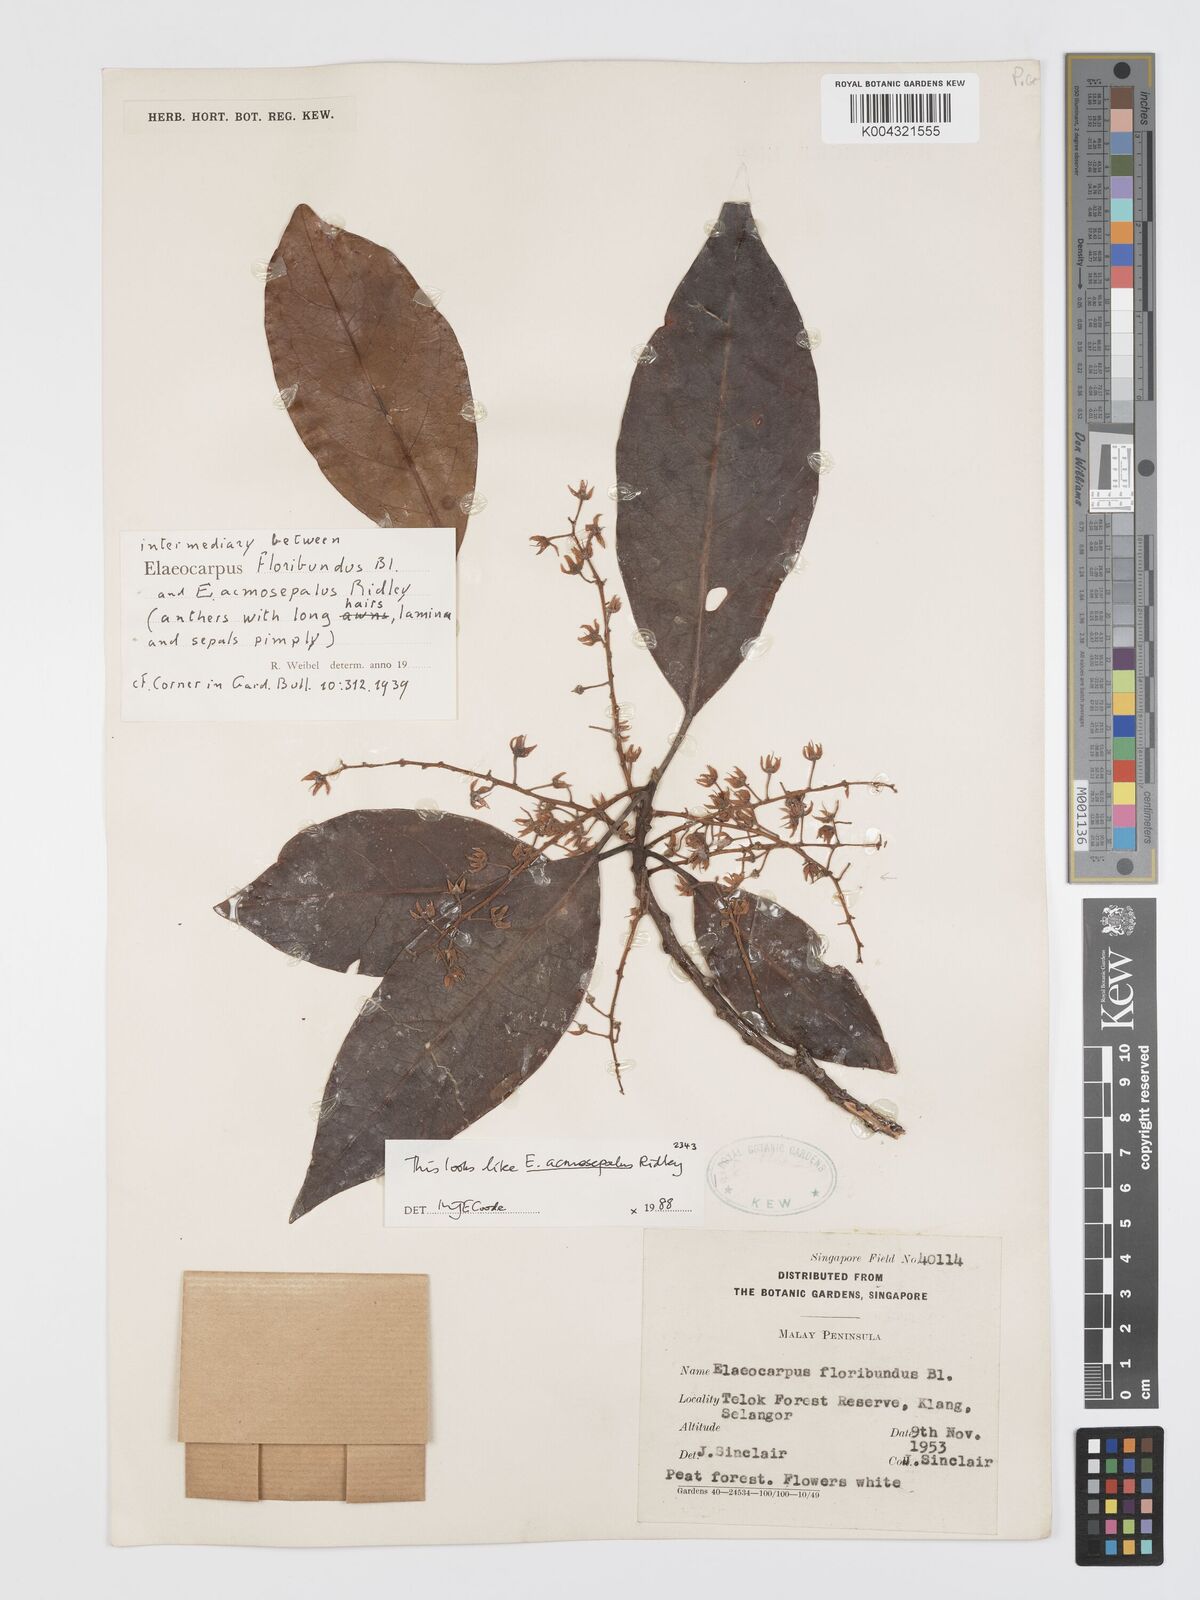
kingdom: Plantae
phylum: Tracheophyta
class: Magnoliopsida
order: Oxalidales
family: Elaeocarpaceae
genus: Elaeocarpus
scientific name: Elaeocarpus acmosepalus
